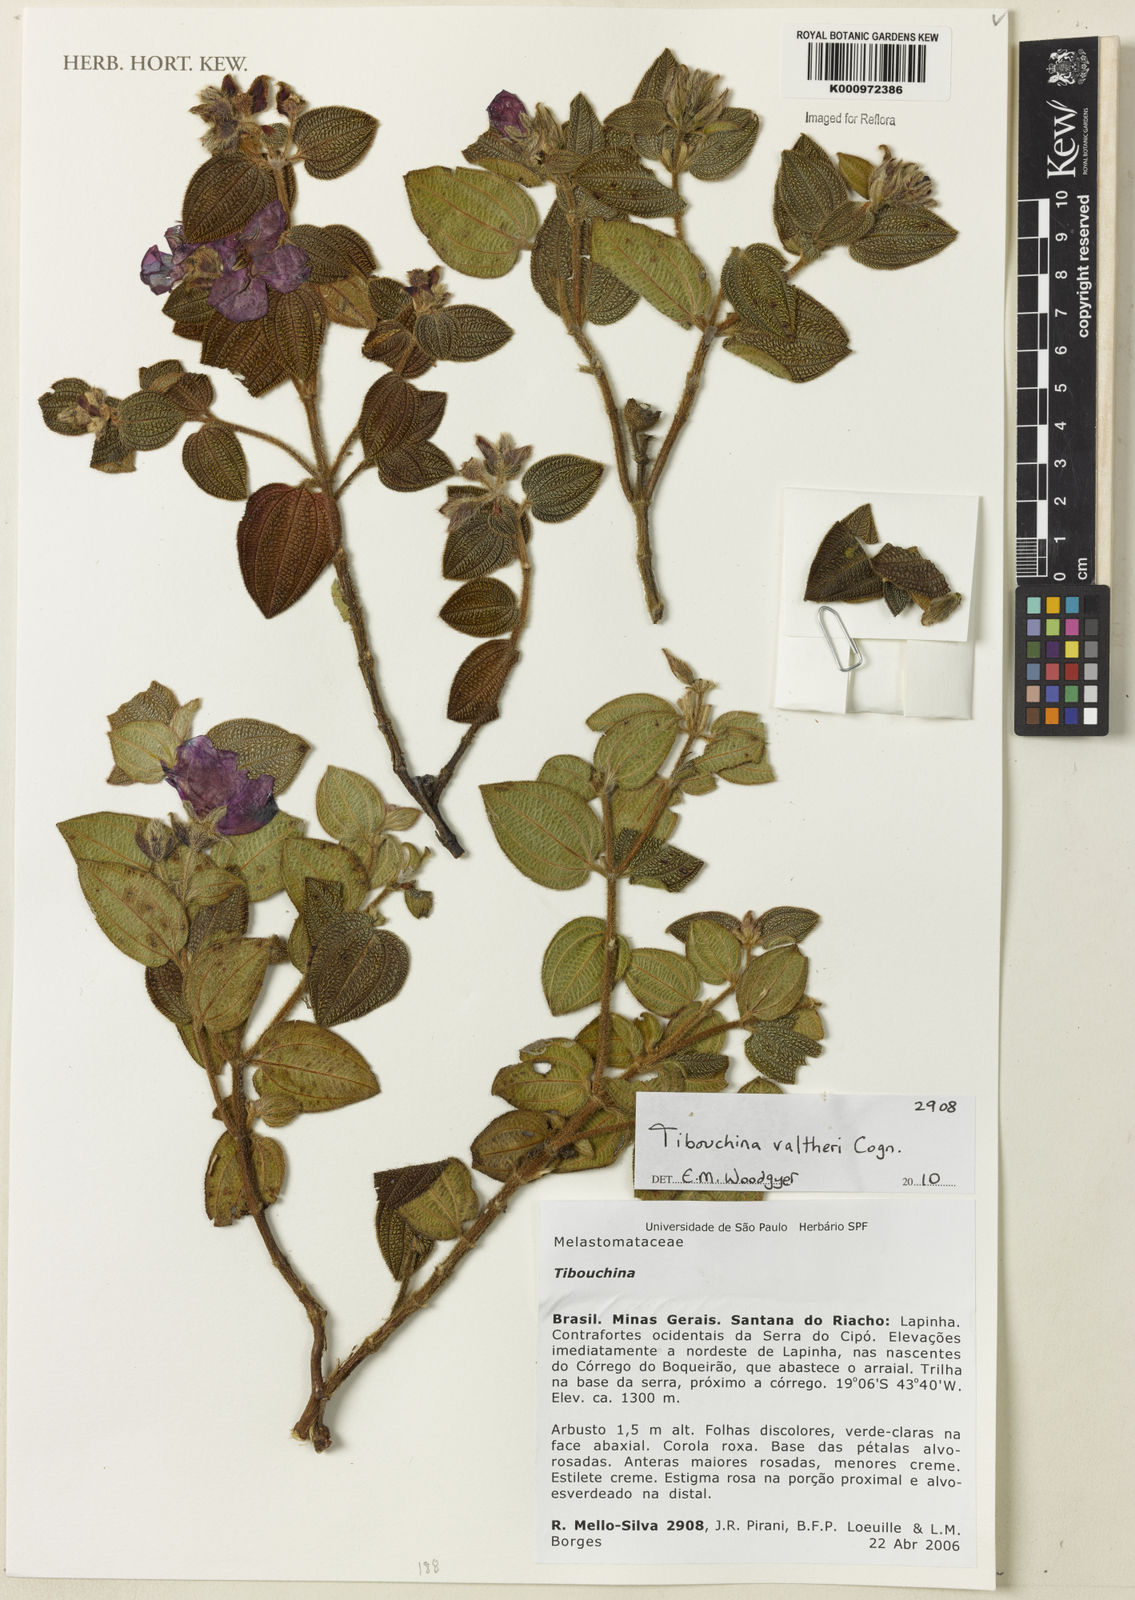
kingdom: Plantae
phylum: Tracheophyta
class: Magnoliopsida
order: Myrtales
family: Melastomataceae
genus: Pleroma
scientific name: Pleroma aemula
